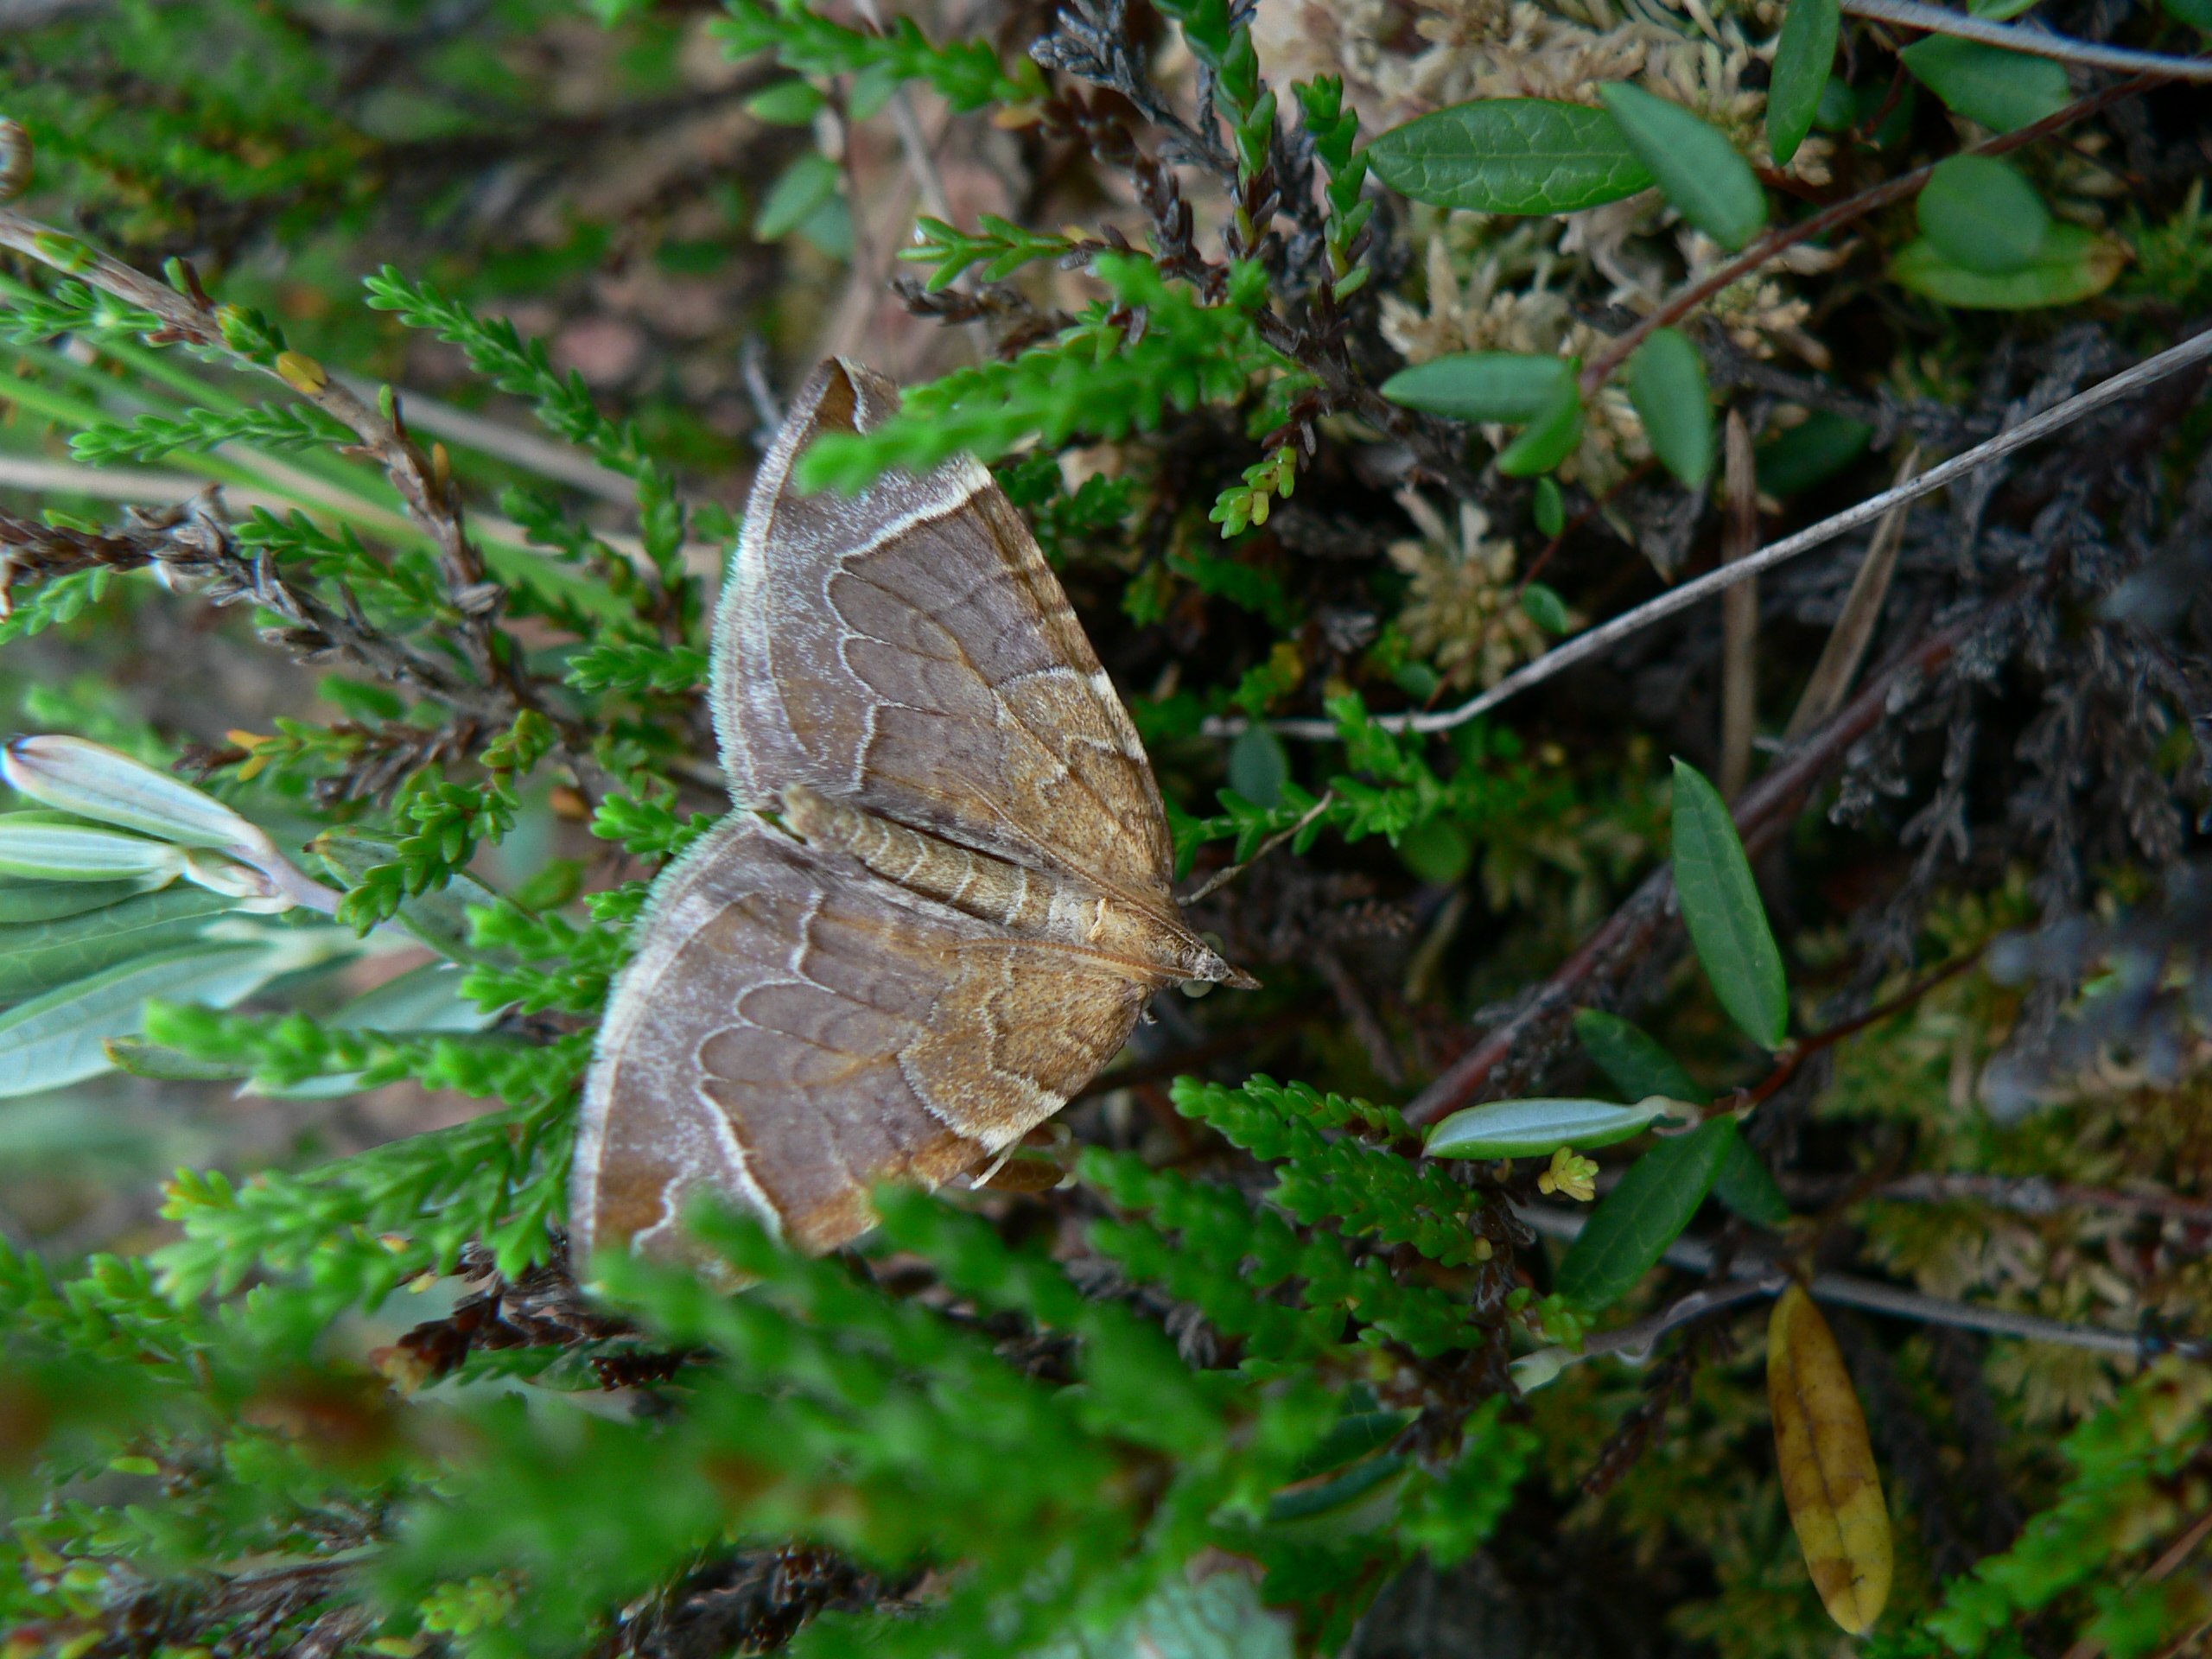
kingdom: Animalia
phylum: Arthropoda
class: Insecta
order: Lepidoptera
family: Geometridae
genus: Eulithis
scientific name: Eulithis testata
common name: Chevron
